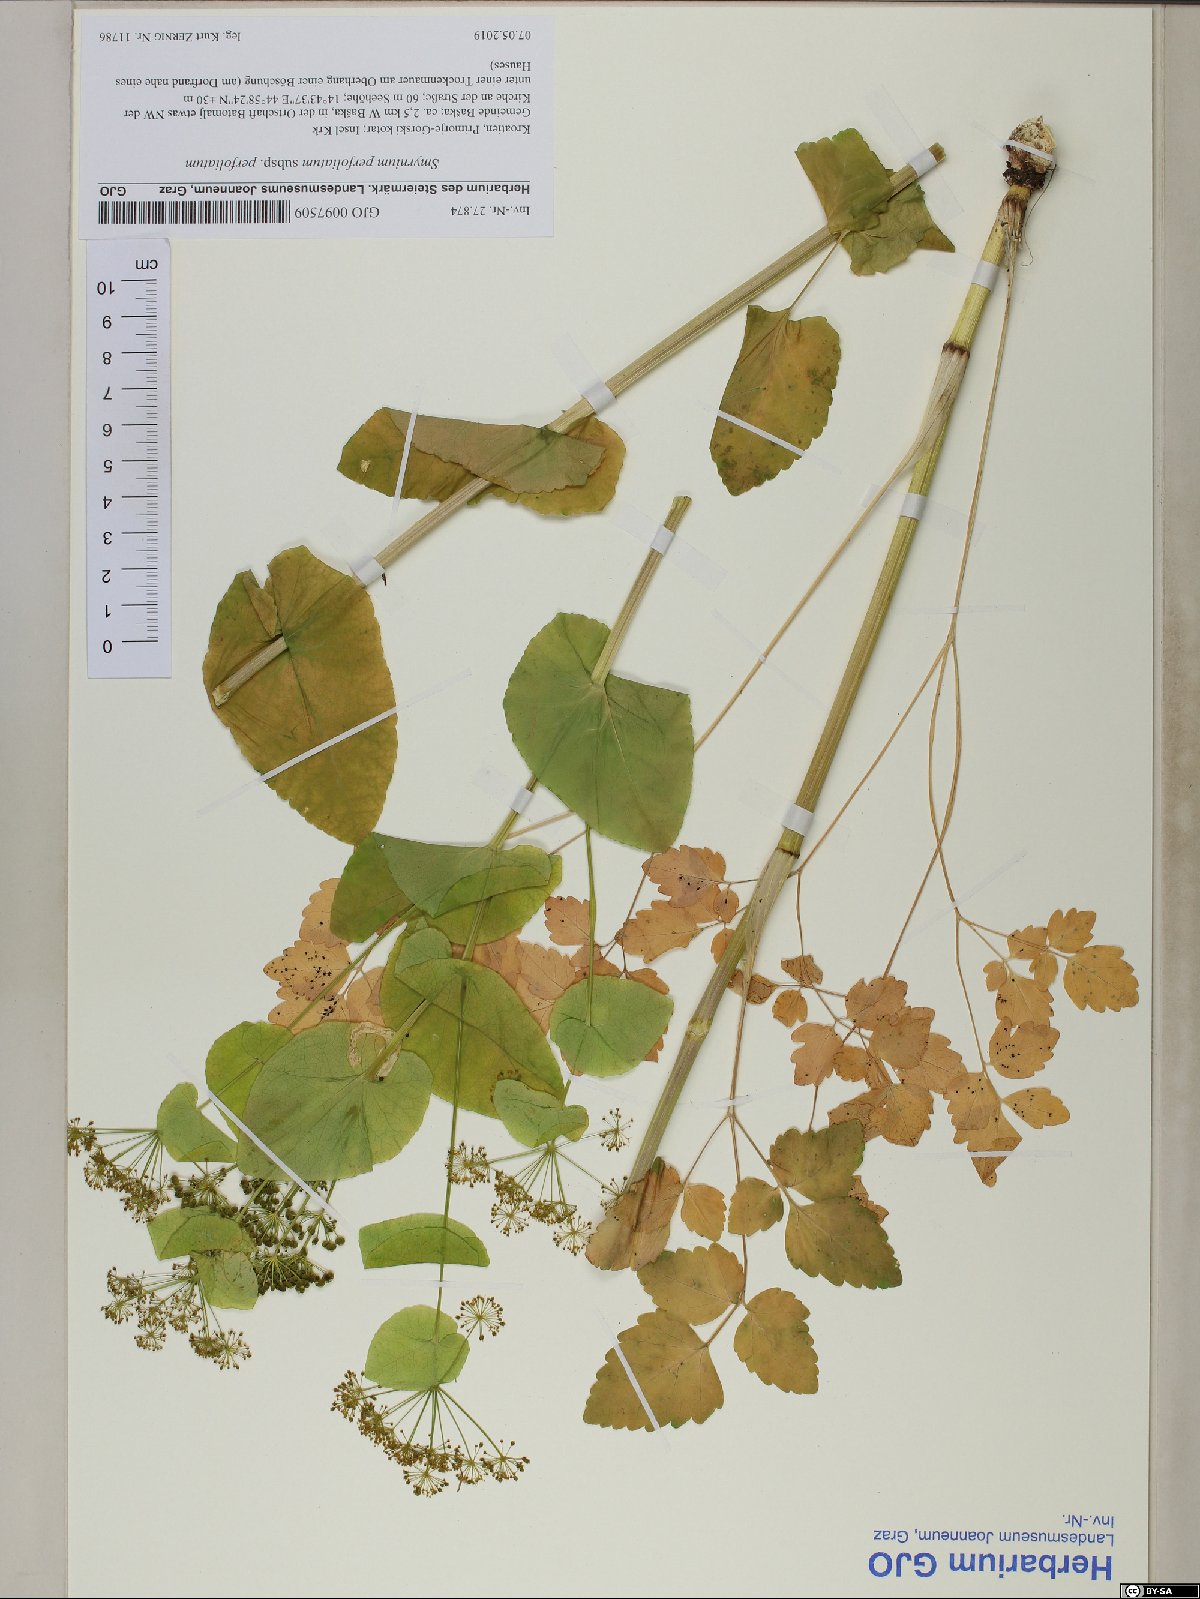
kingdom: Plantae
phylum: Tracheophyta
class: Magnoliopsida
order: Apiales
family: Apiaceae
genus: Smyrnium
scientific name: Smyrnium perfoliatum
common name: Perfoliate alexanders
